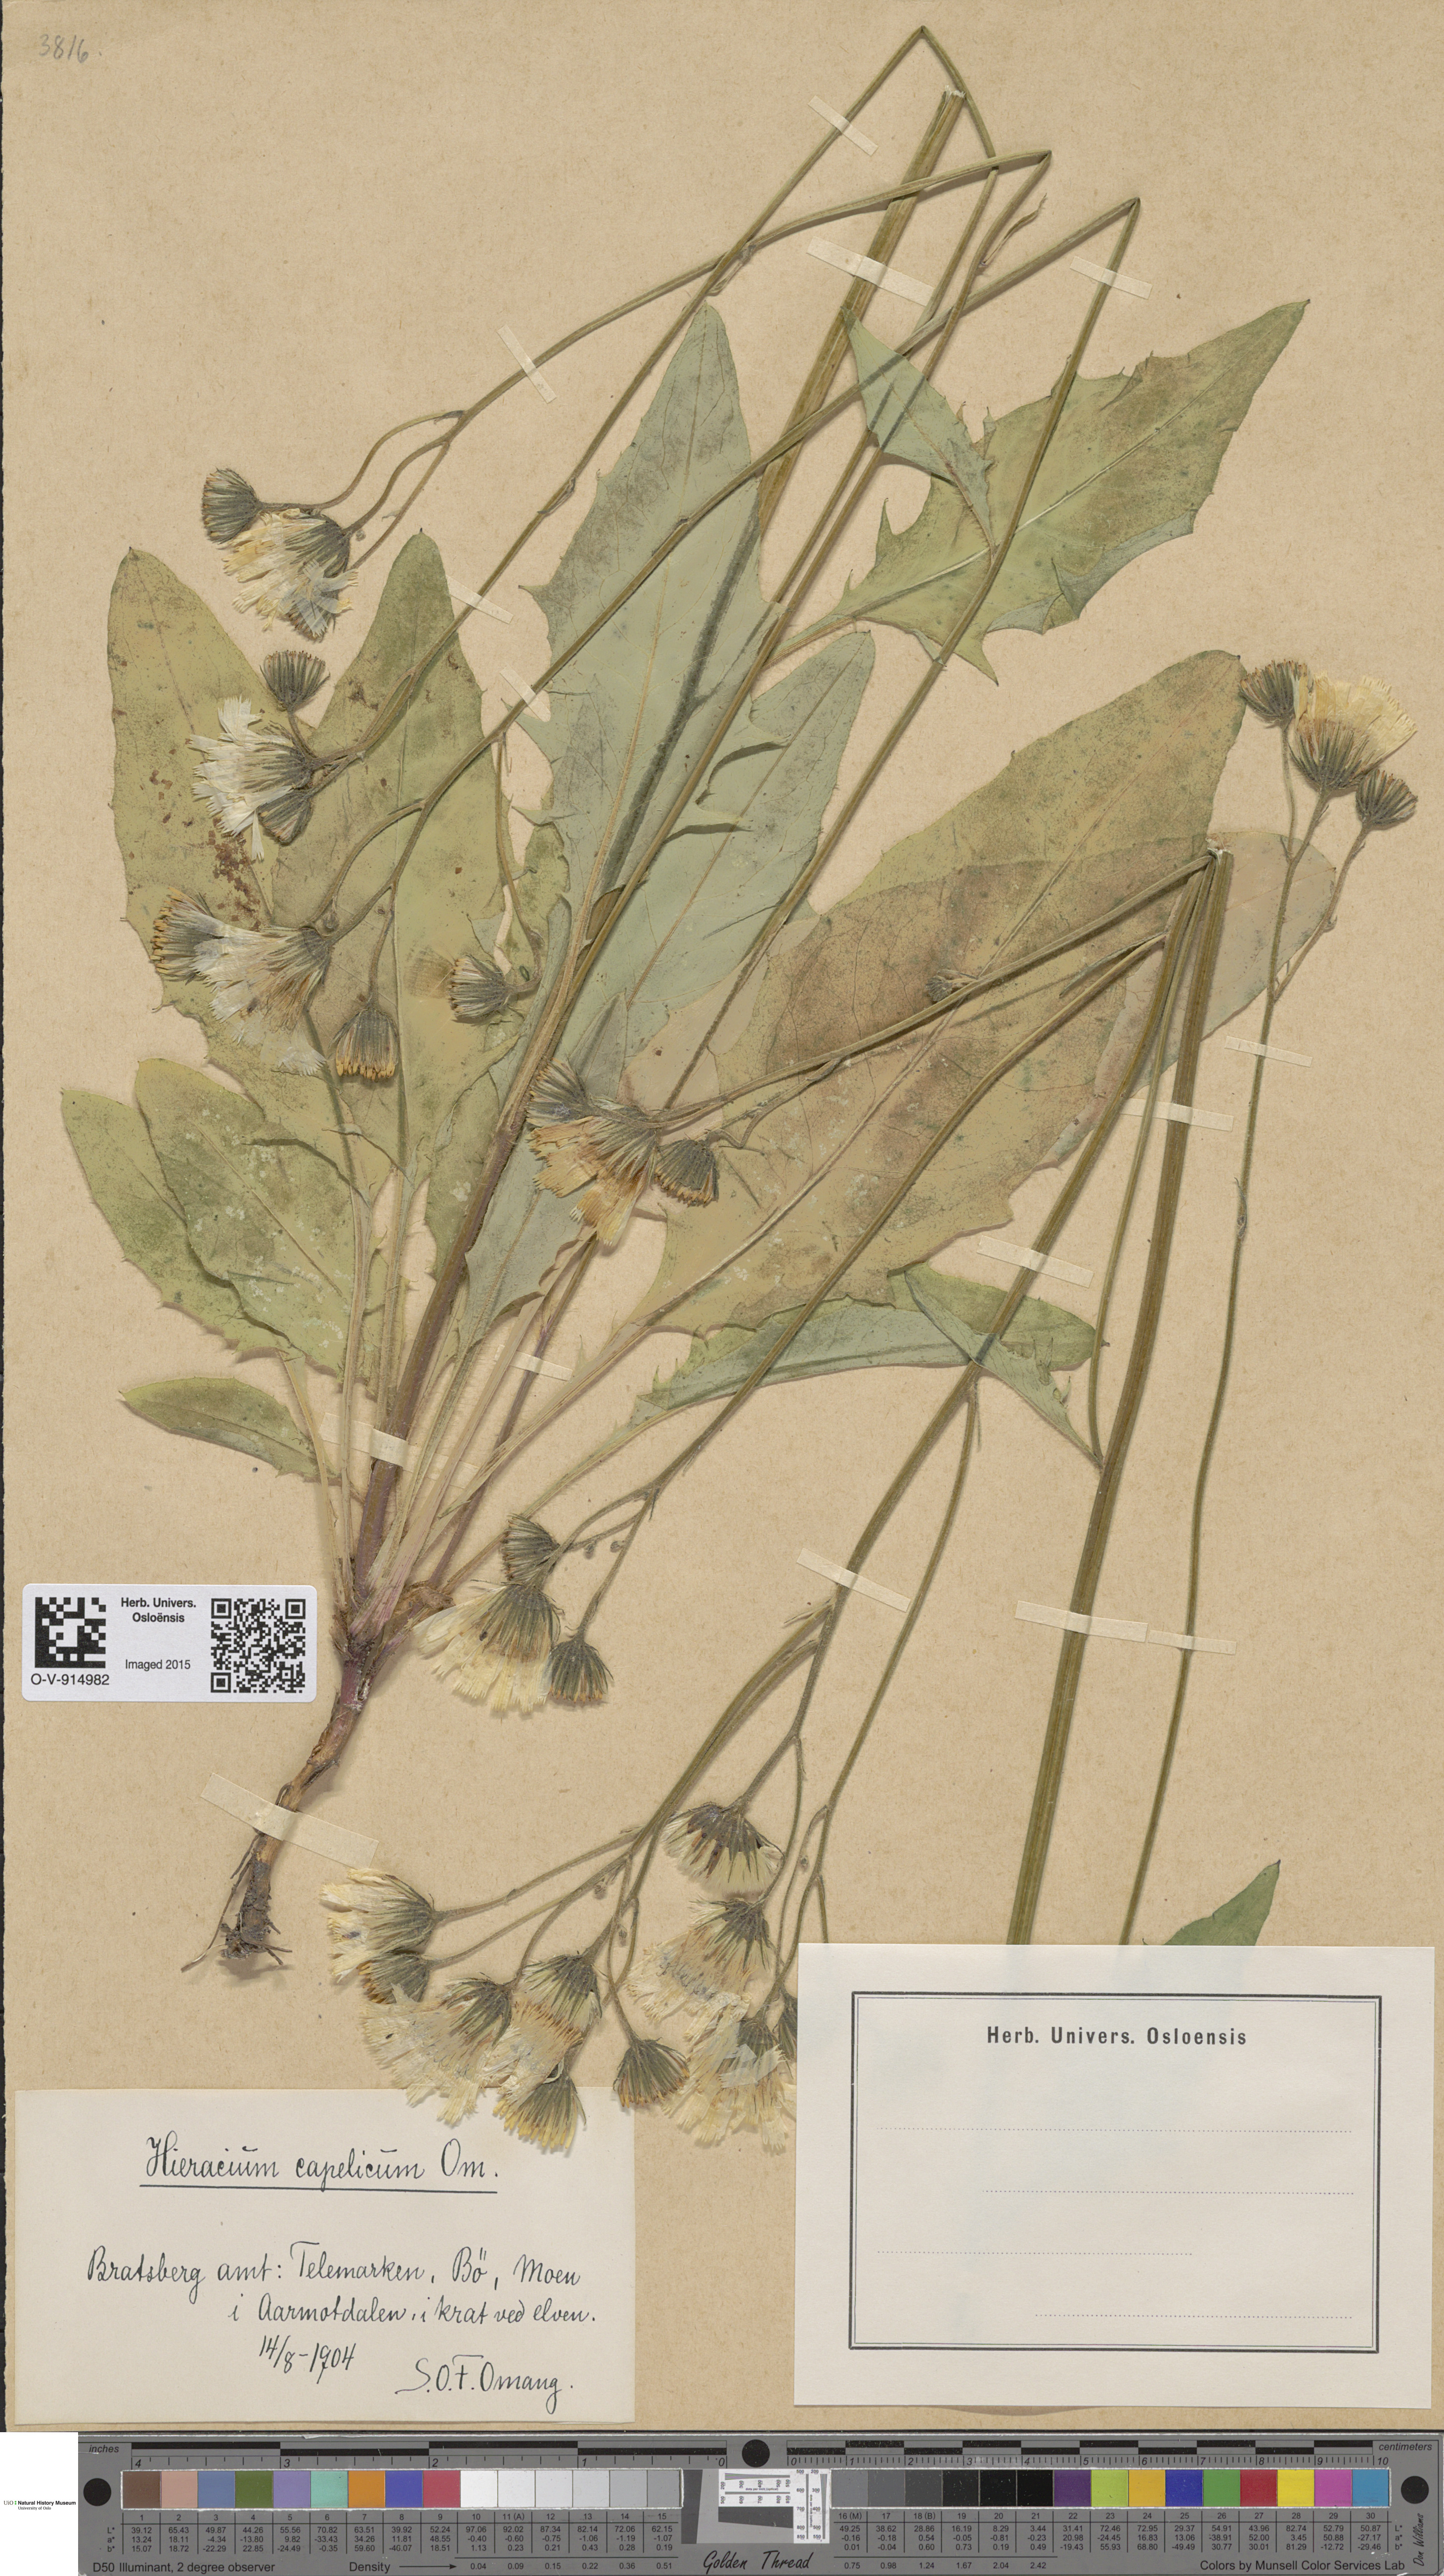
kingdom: Plantae
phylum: Tracheophyta
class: Magnoliopsida
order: Asterales
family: Asteraceae
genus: Hieracium
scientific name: Hieracium
